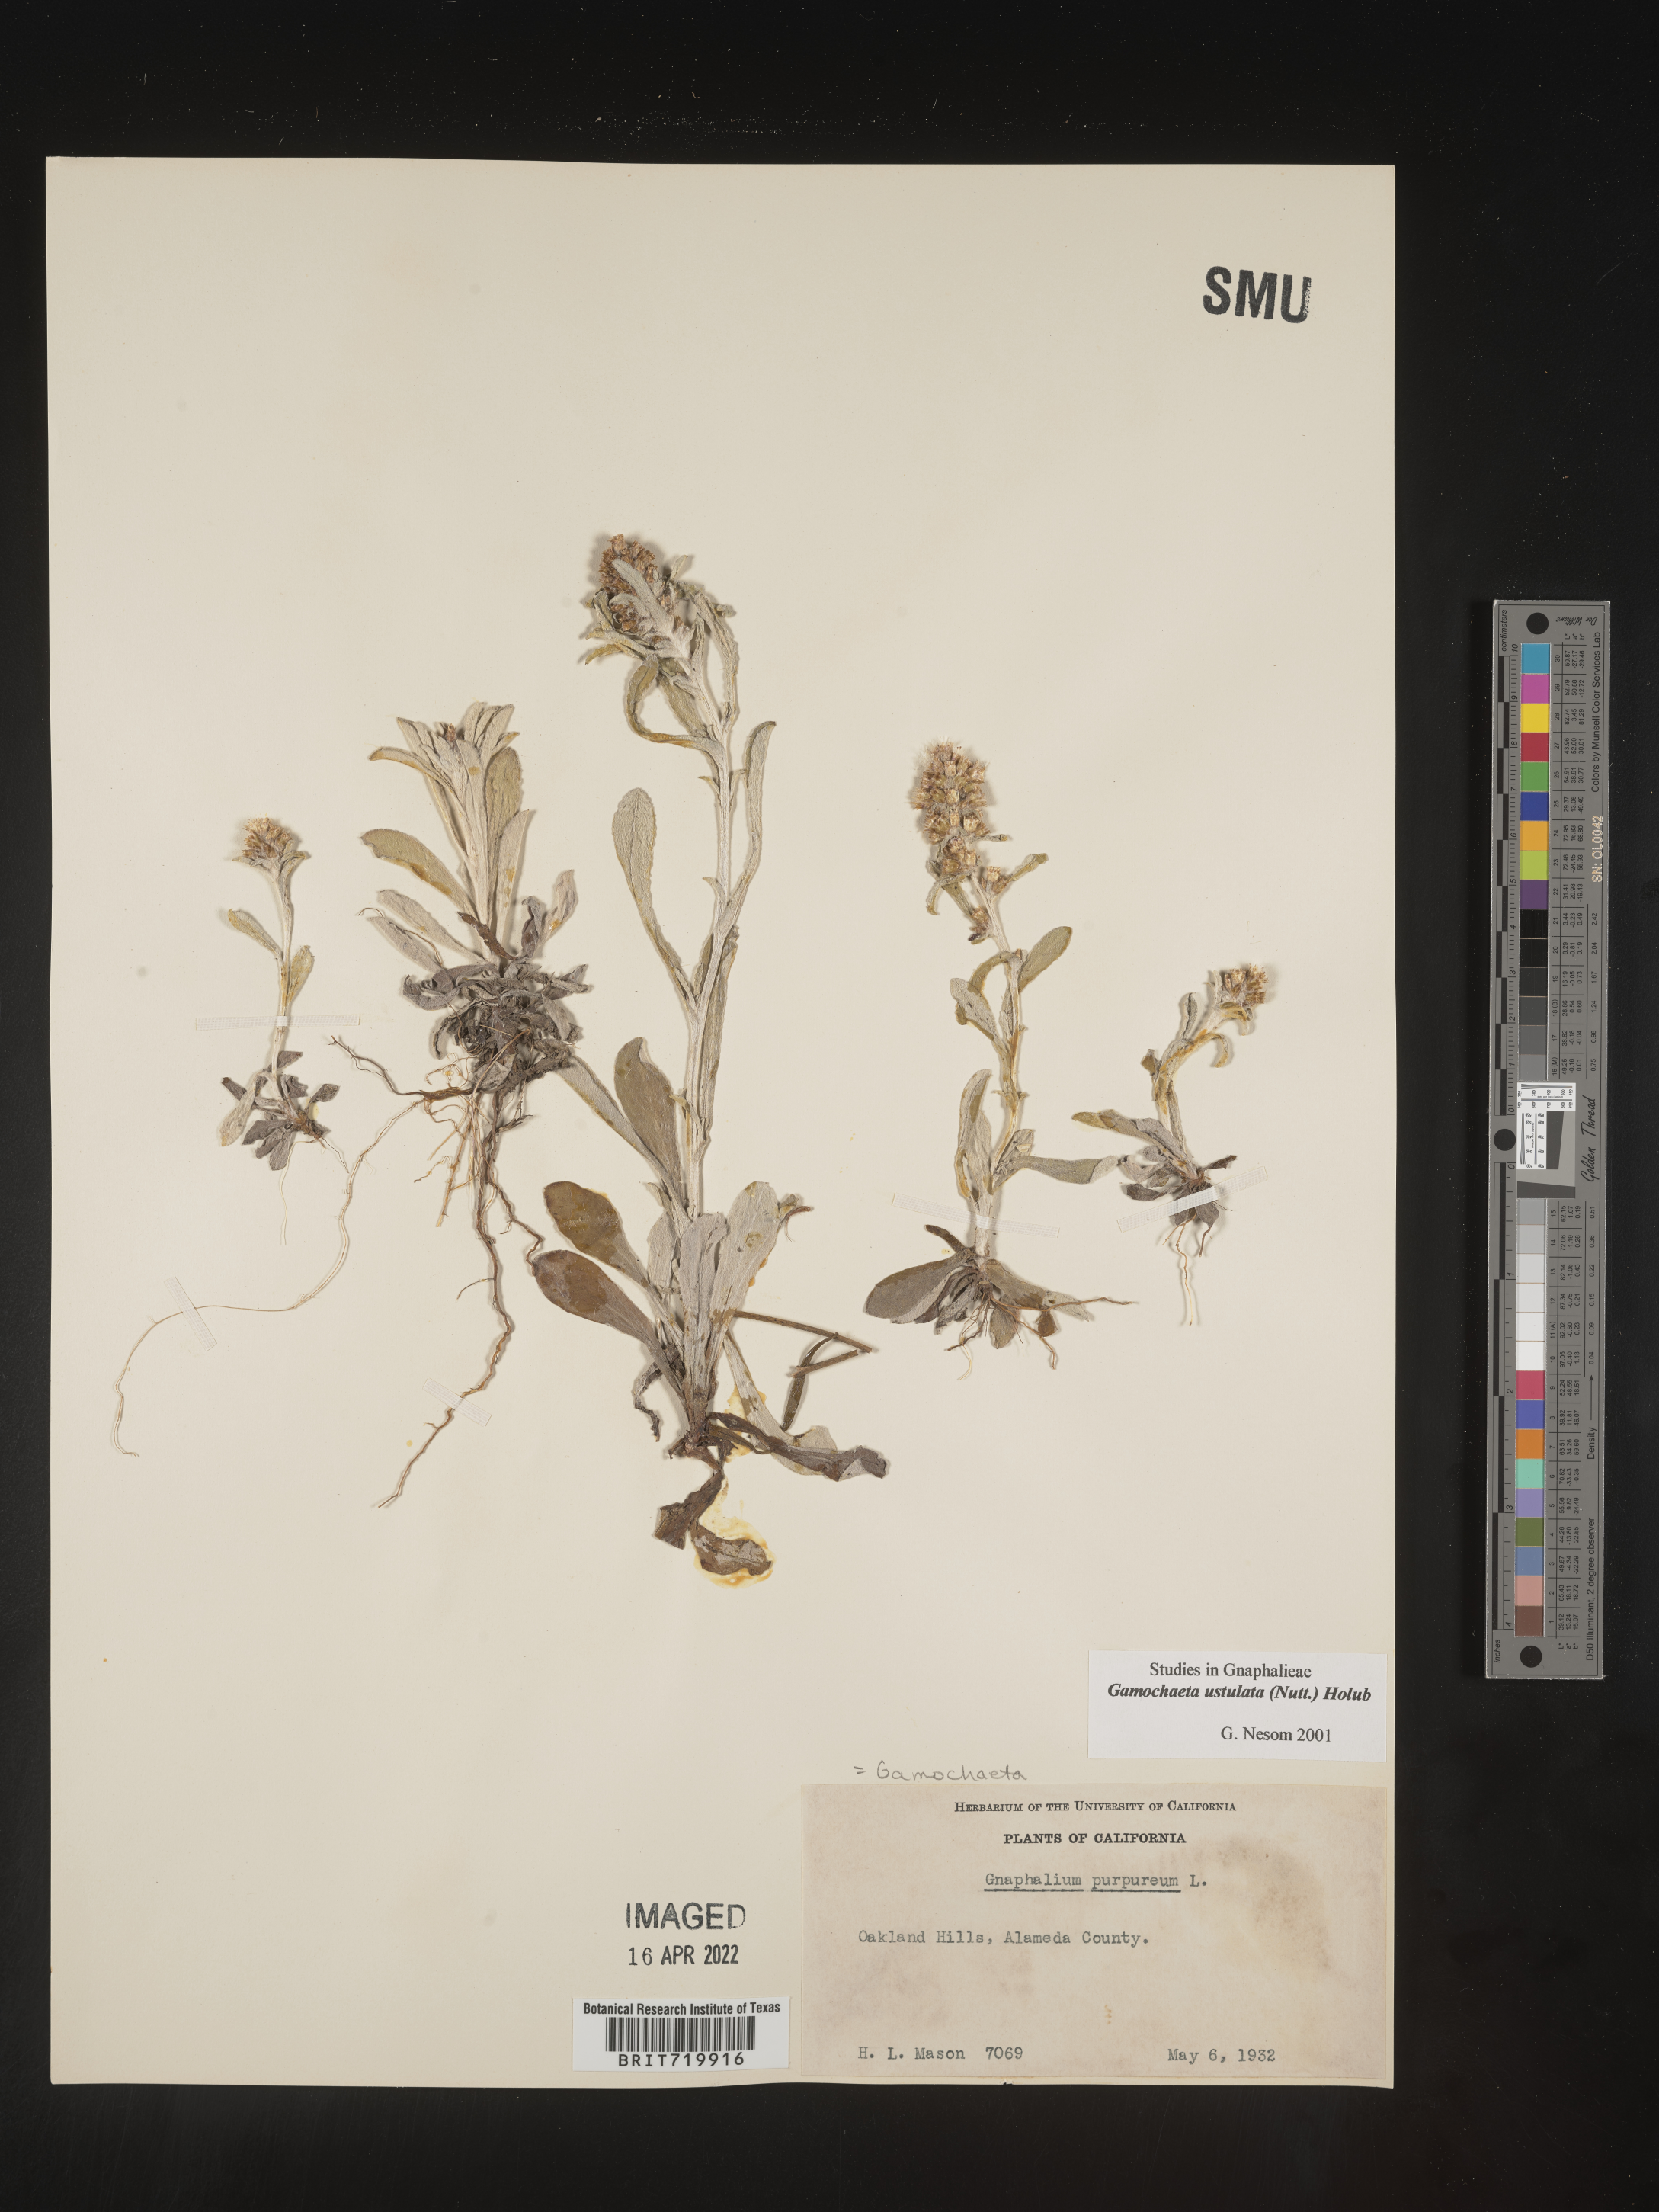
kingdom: Plantae
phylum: Tracheophyta
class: Magnoliopsida
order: Asterales
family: Asteraceae
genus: Gamochaeta
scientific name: Gamochaeta ustulata
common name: Pacific cudweed
